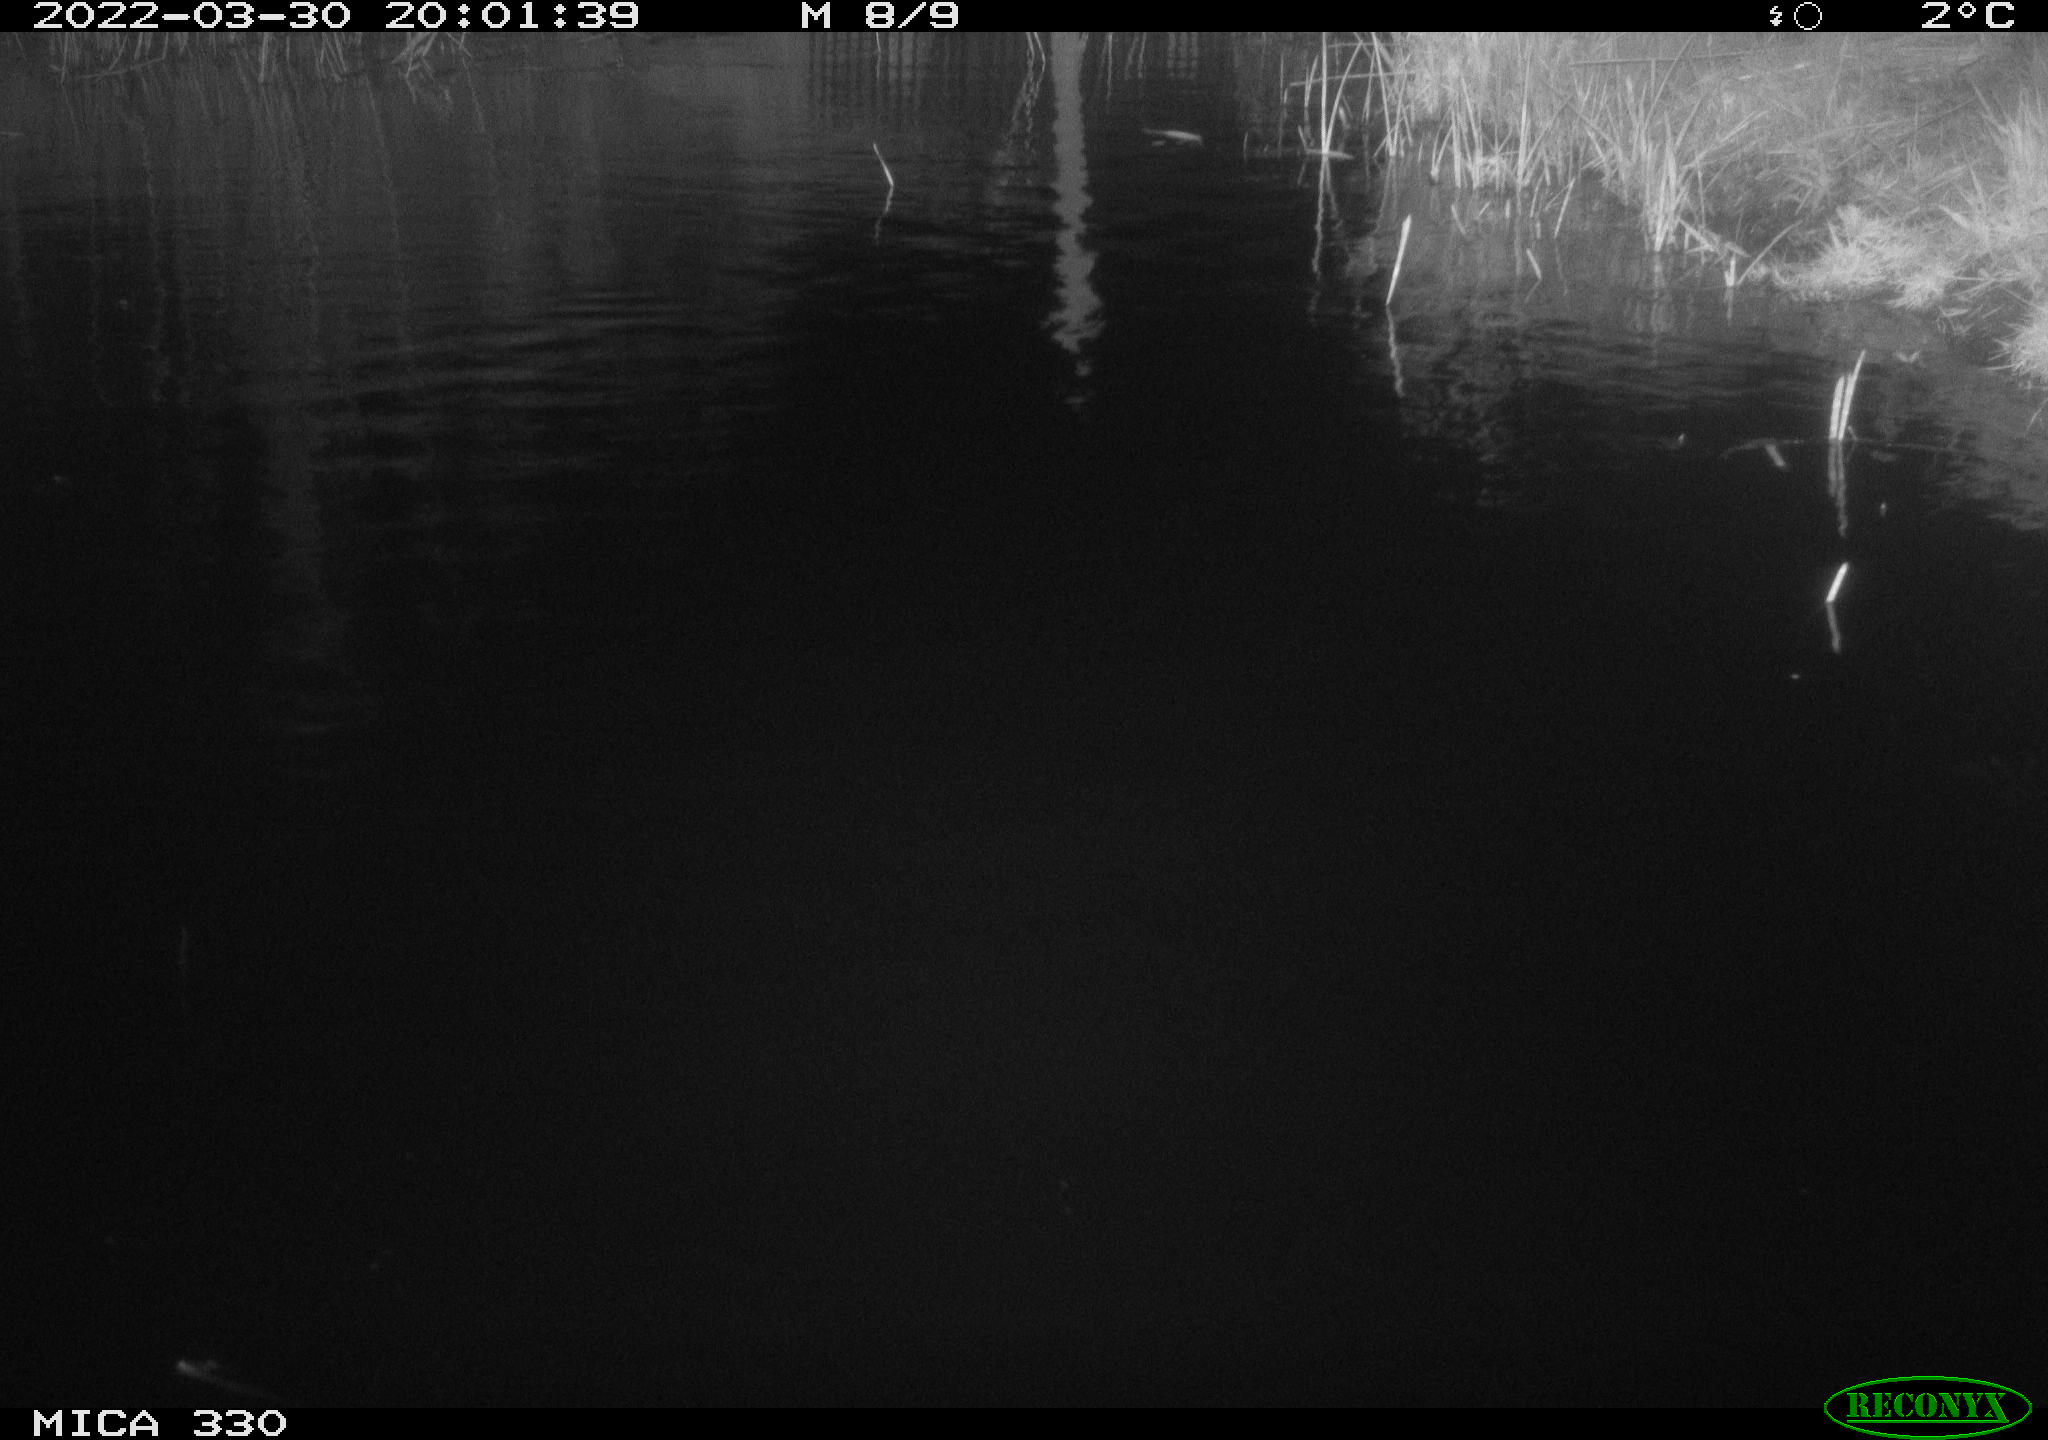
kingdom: Animalia
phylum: Chordata
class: Aves
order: Anseriformes
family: Anatidae
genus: Anas
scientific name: Anas platyrhynchos
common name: Mallard
